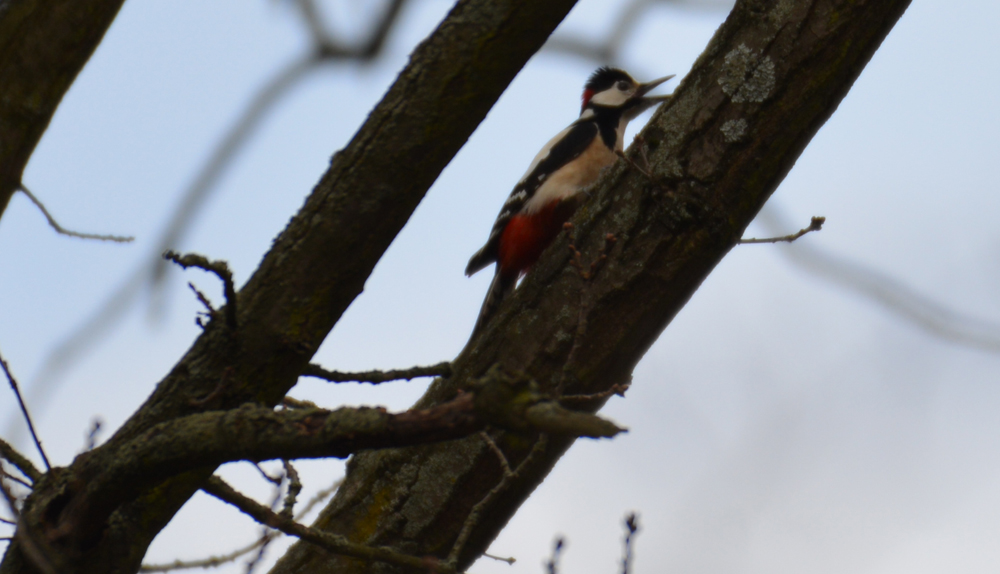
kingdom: Animalia
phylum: Chordata
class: Aves
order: Piciformes
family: Picidae
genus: Dendrocopos
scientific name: Dendrocopos major
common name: Great spotted woodpecker
